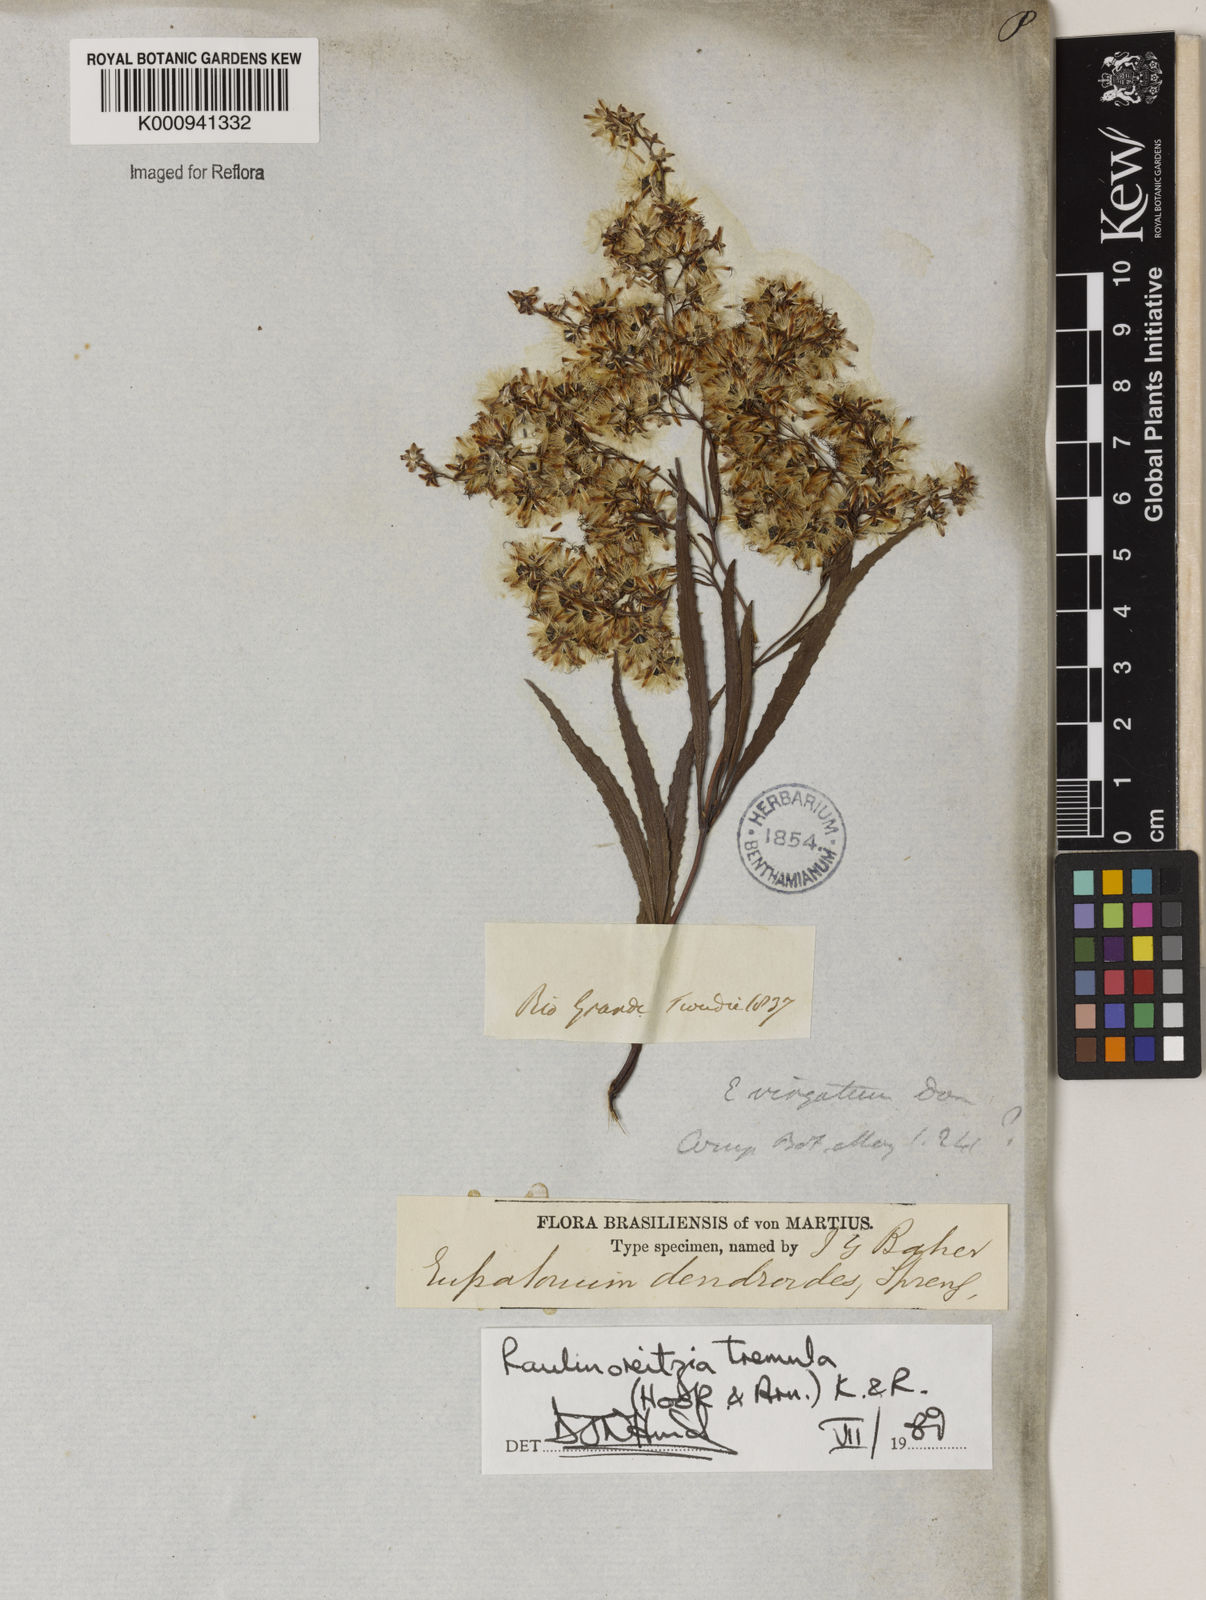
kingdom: Plantae
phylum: Tracheophyta
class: Magnoliopsida
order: Asterales
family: Asteraceae
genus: Raulinoreitzia
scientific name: Raulinoreitzia tremula
